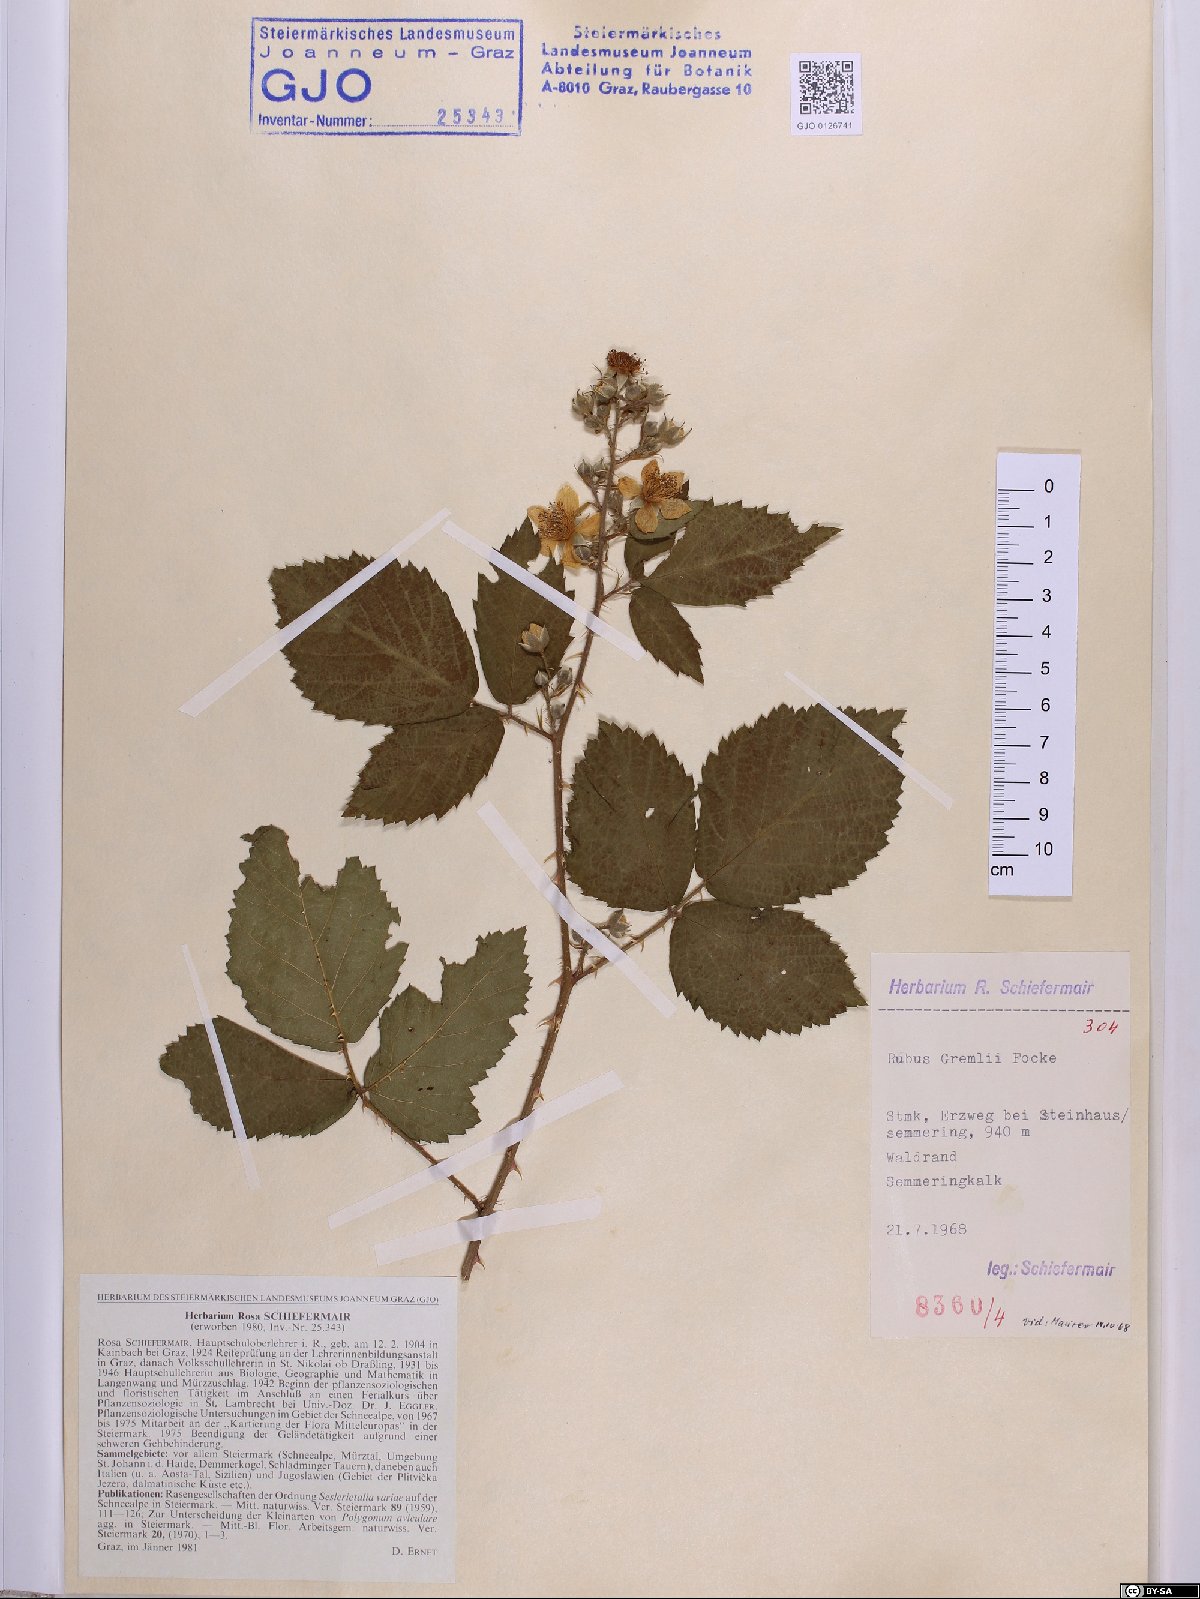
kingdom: Plantae
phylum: Tracheophyta
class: Magnoliopsida
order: Rosales
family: Rosaceae
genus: Rubus
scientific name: Rubus gremlii
